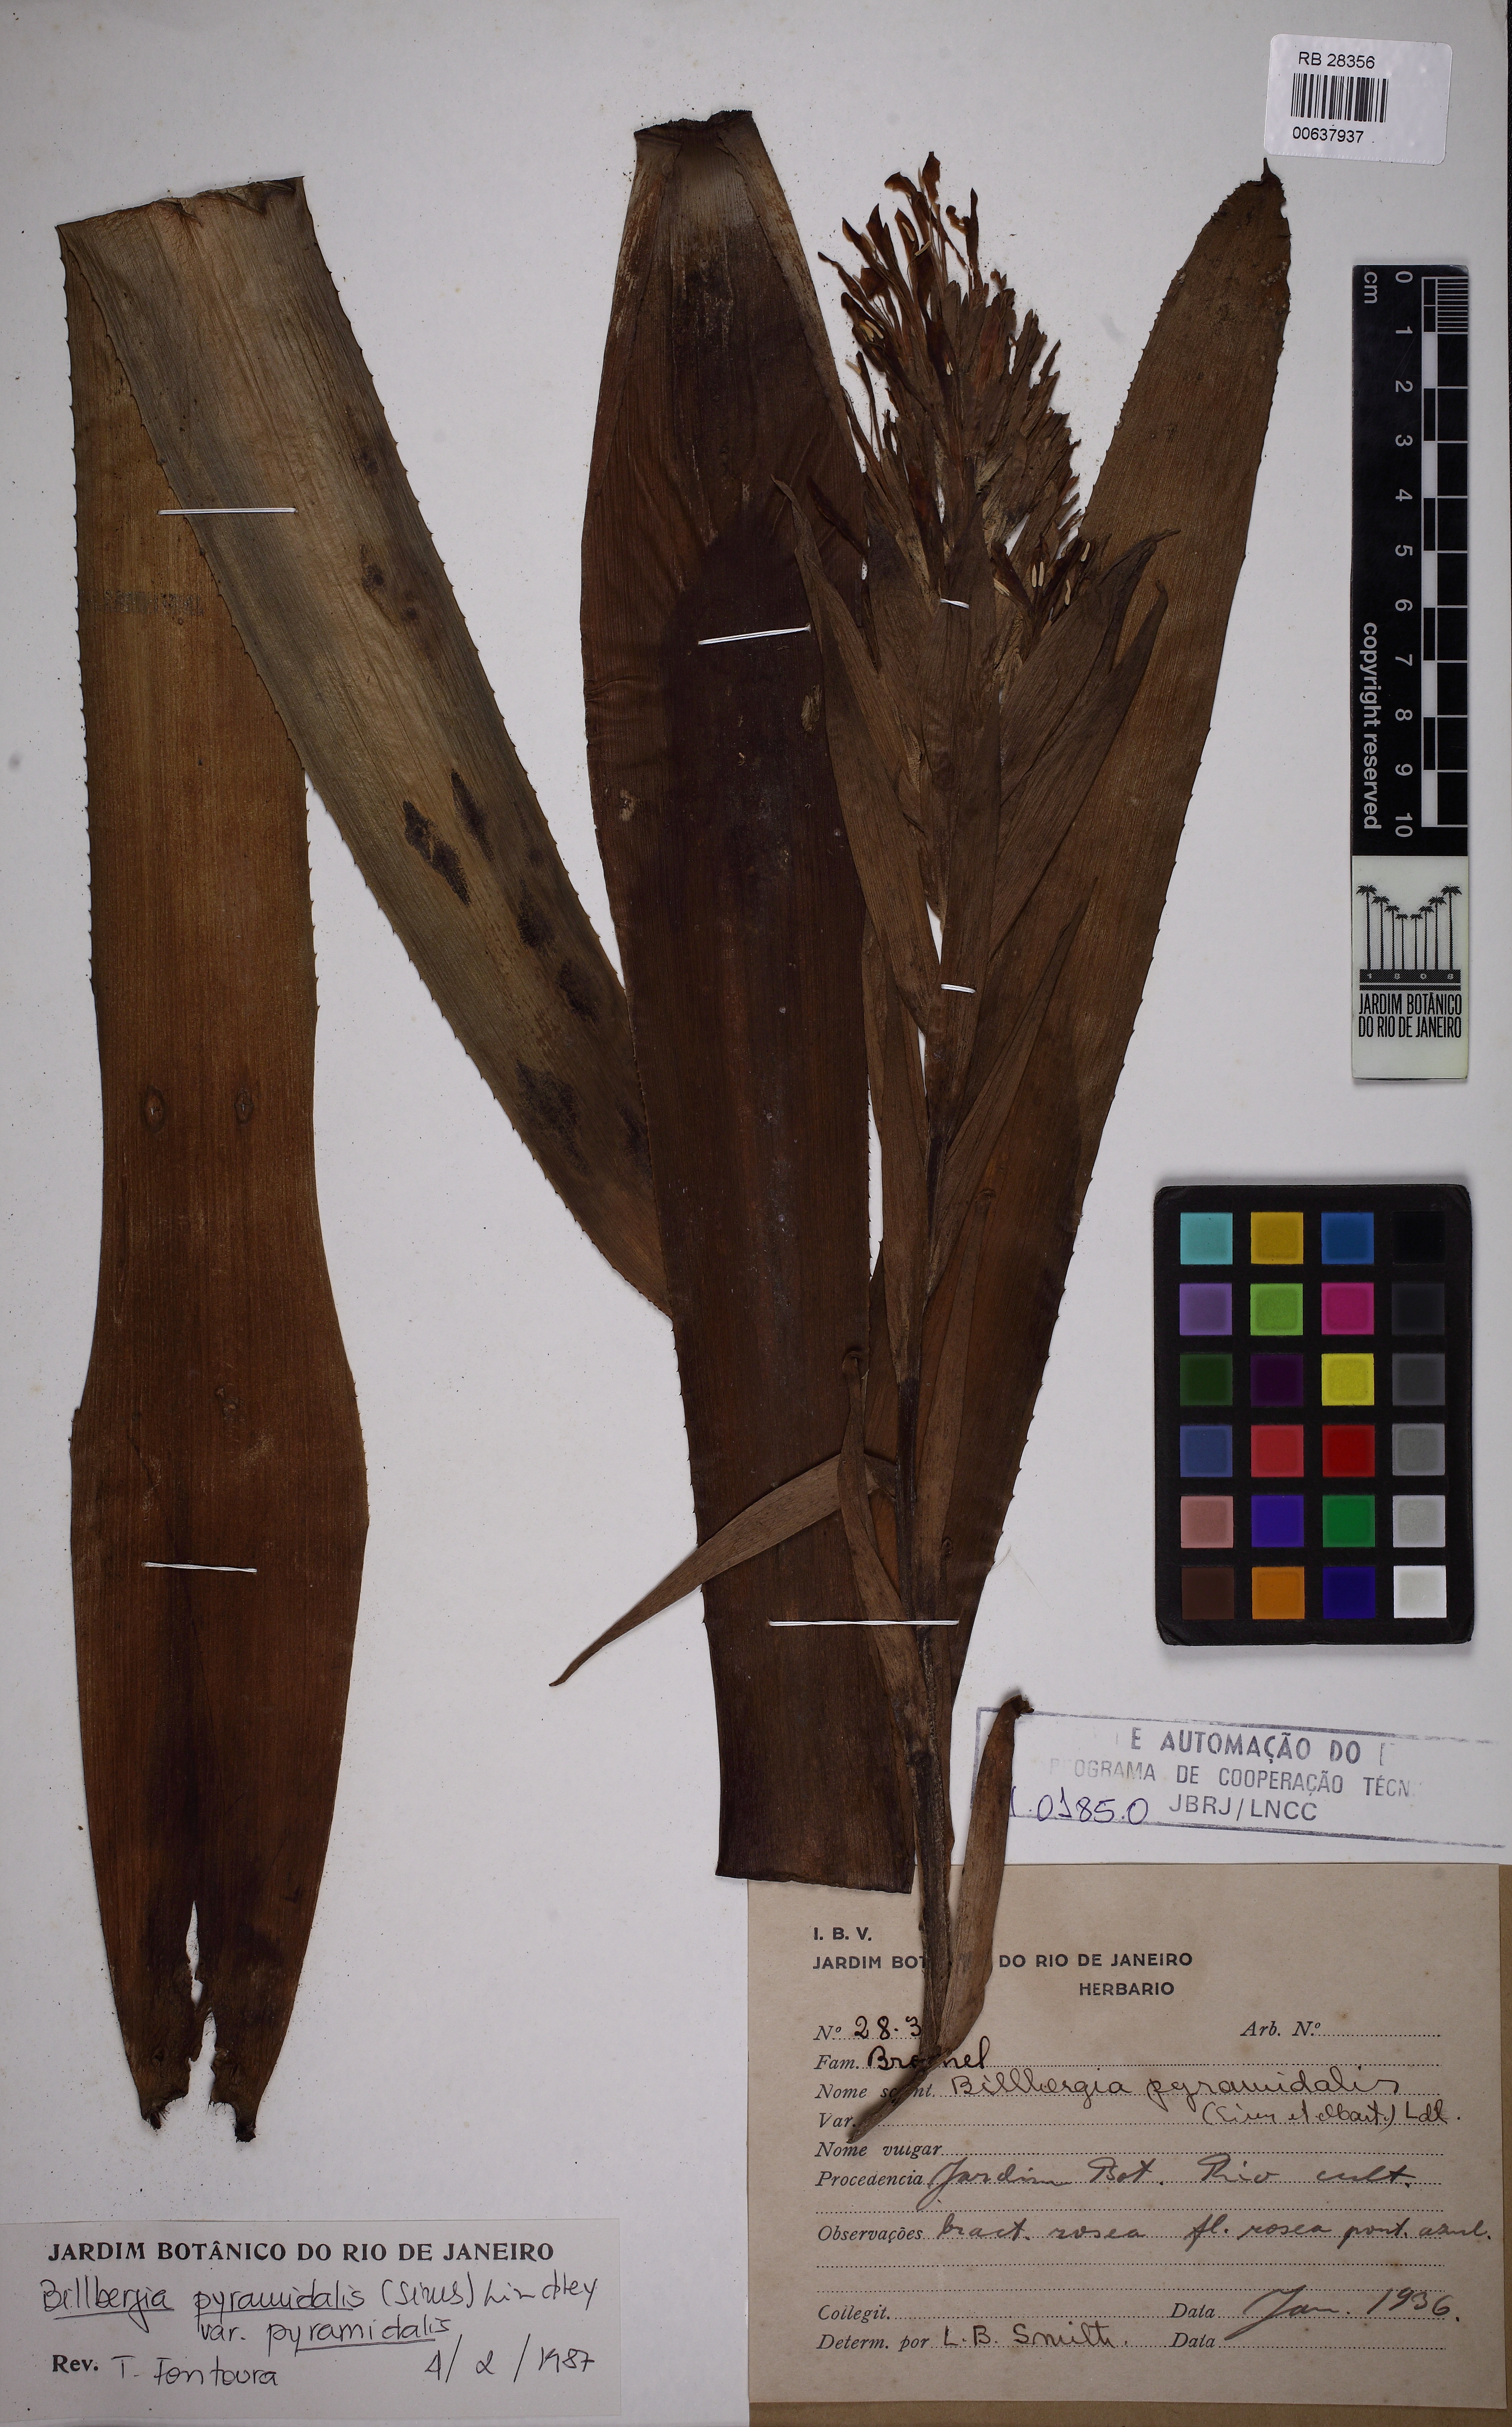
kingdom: Plantae
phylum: Tracheophyta
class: Liliopsida
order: Poales
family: Bromeliaceae
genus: Billbergia
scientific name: Billbergia pyramidalis
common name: Foolproofplant
